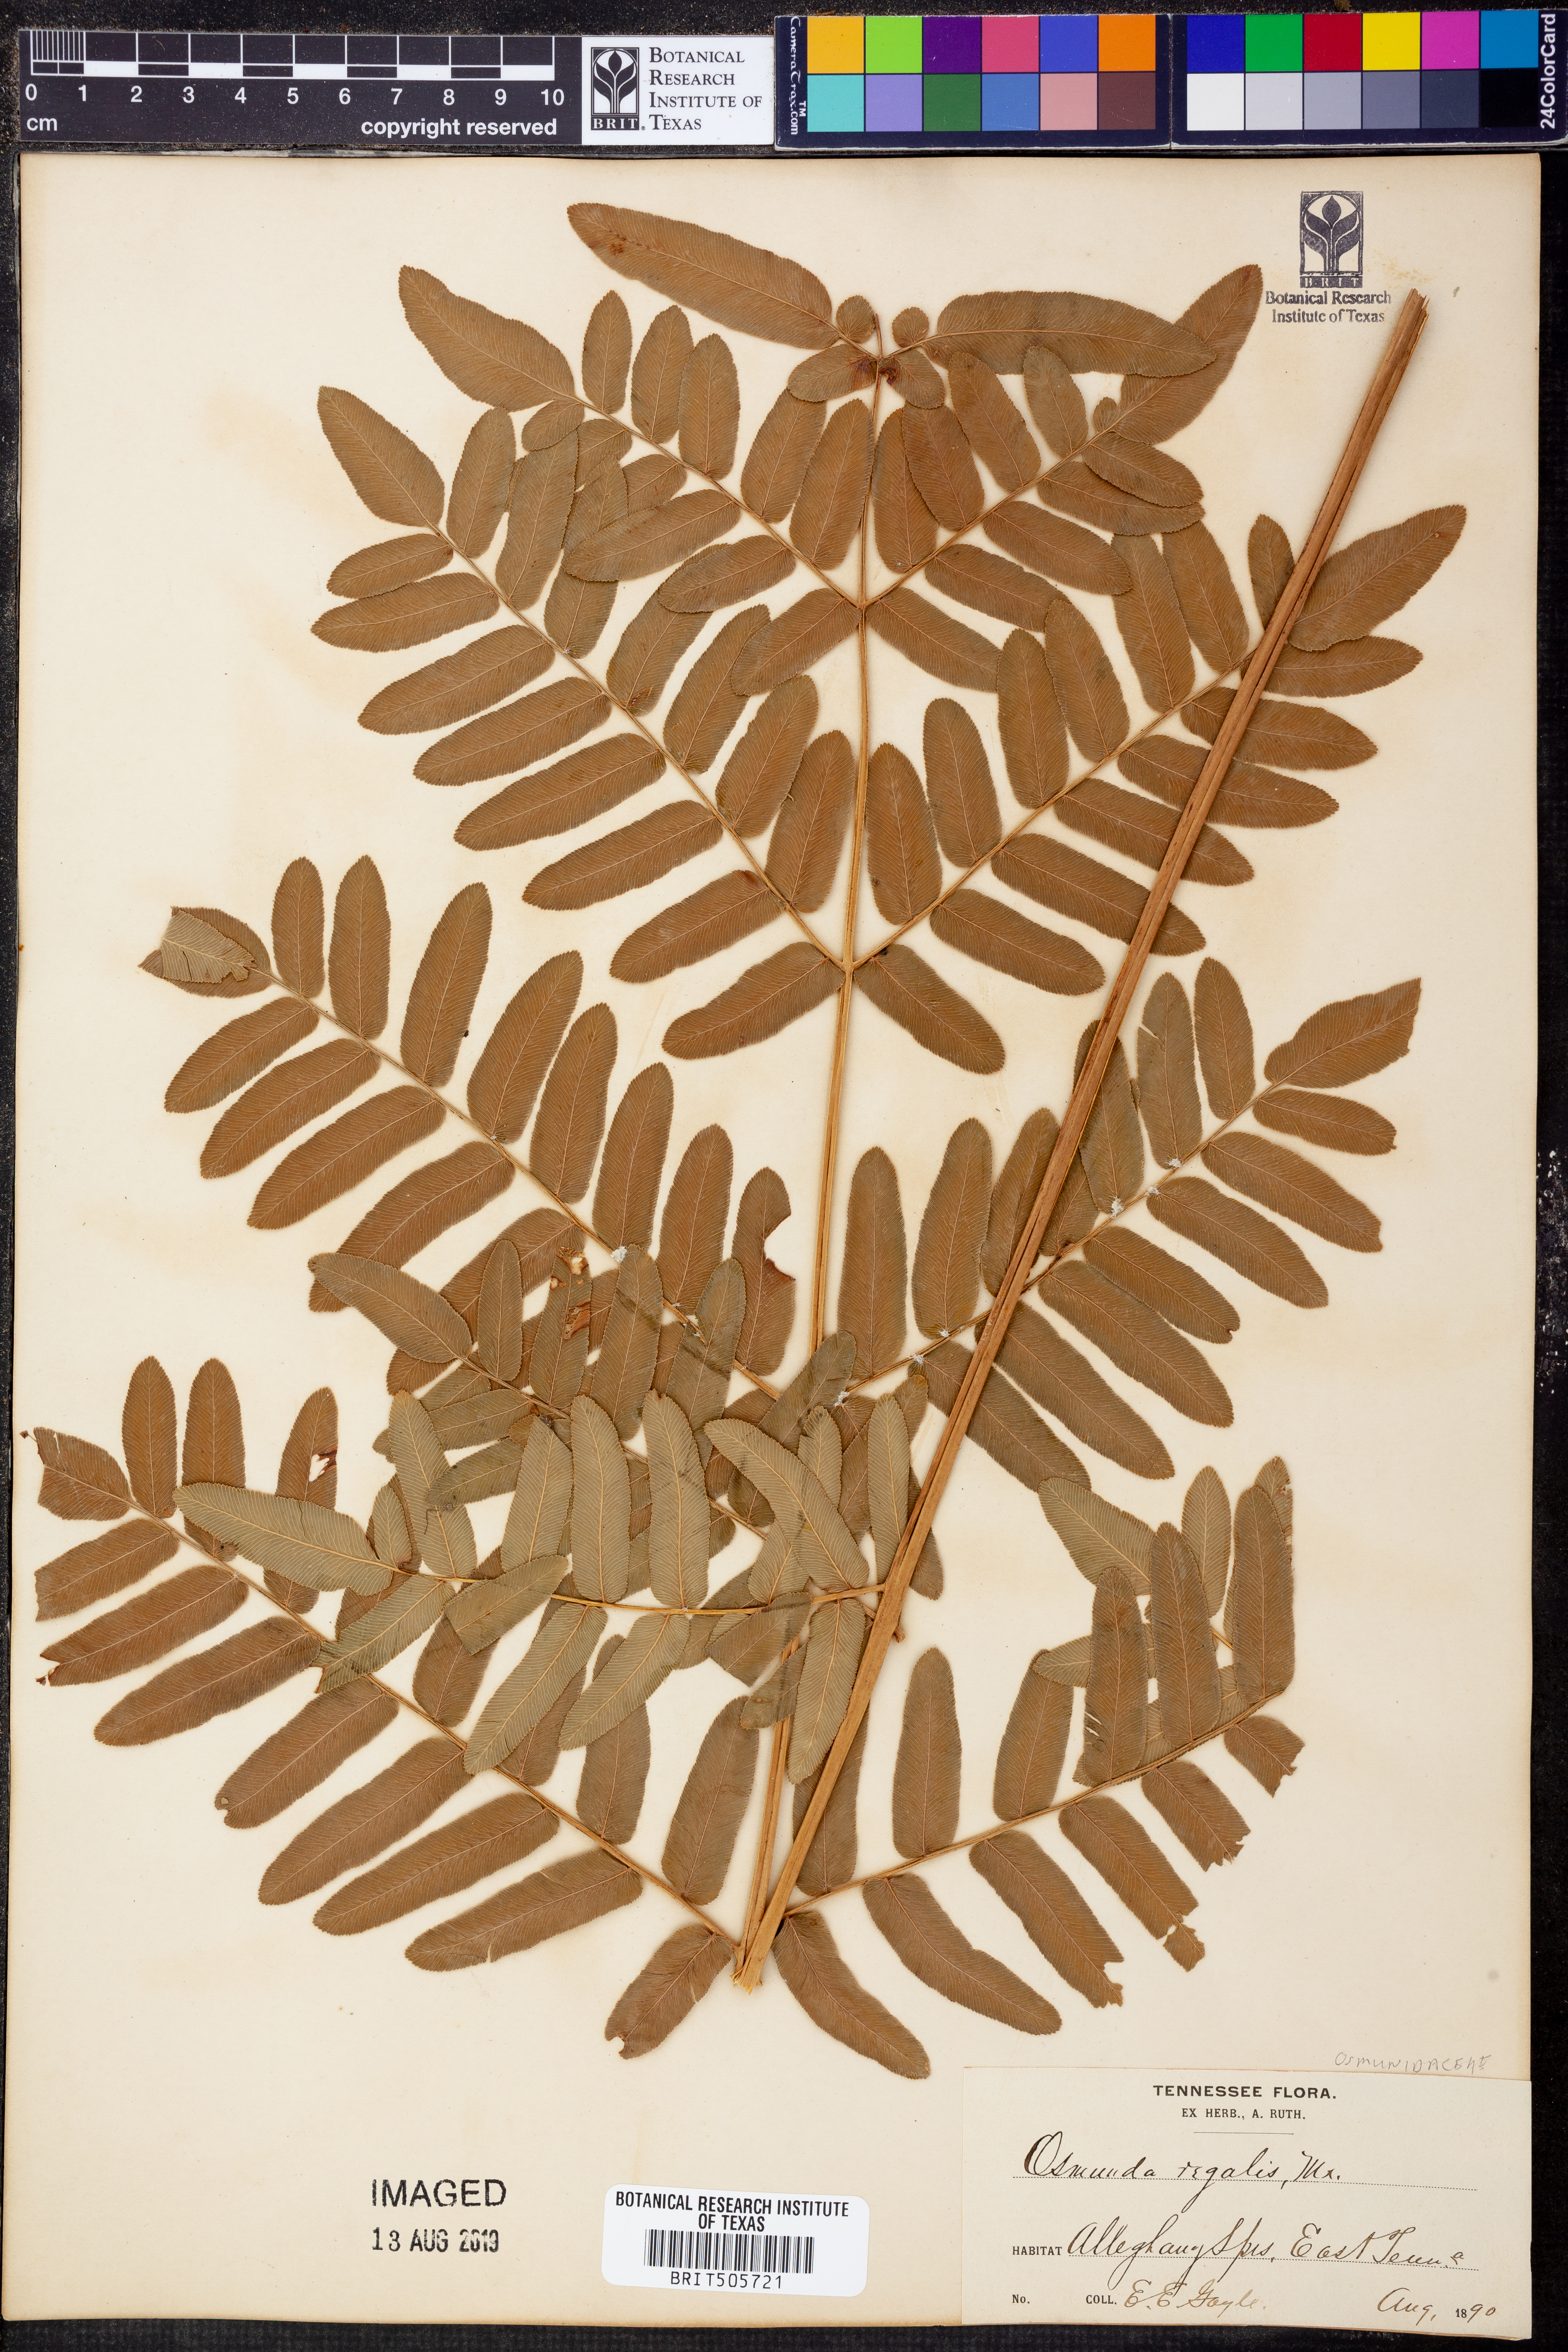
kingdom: Plantae
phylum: Tracheophyta
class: Polypodiopsida
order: Osmundales
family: Osmundaceae
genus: Osmunda
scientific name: Osmunda regalis
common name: Royal fern
